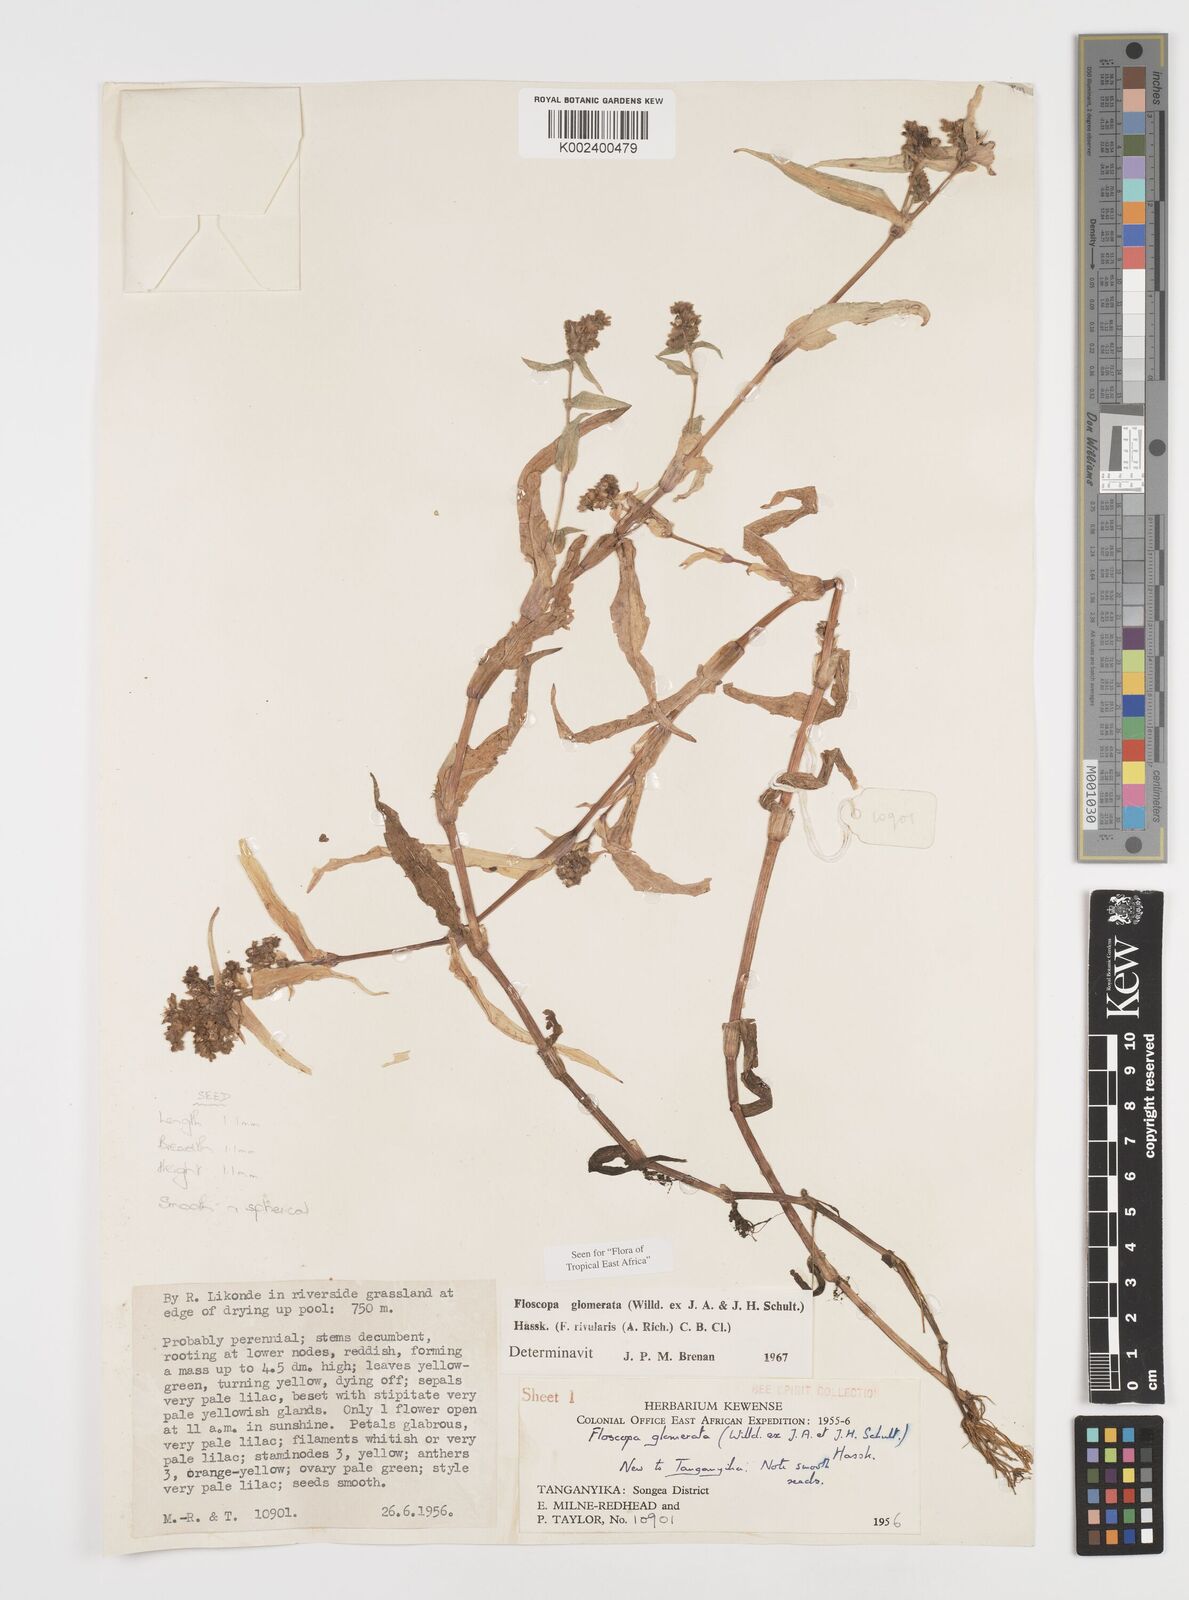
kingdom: Plantae
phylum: Tracheophyta
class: Liliopsida
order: Commelinales
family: Commelinaceae
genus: Floscopa
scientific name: Floscopa glomerata
